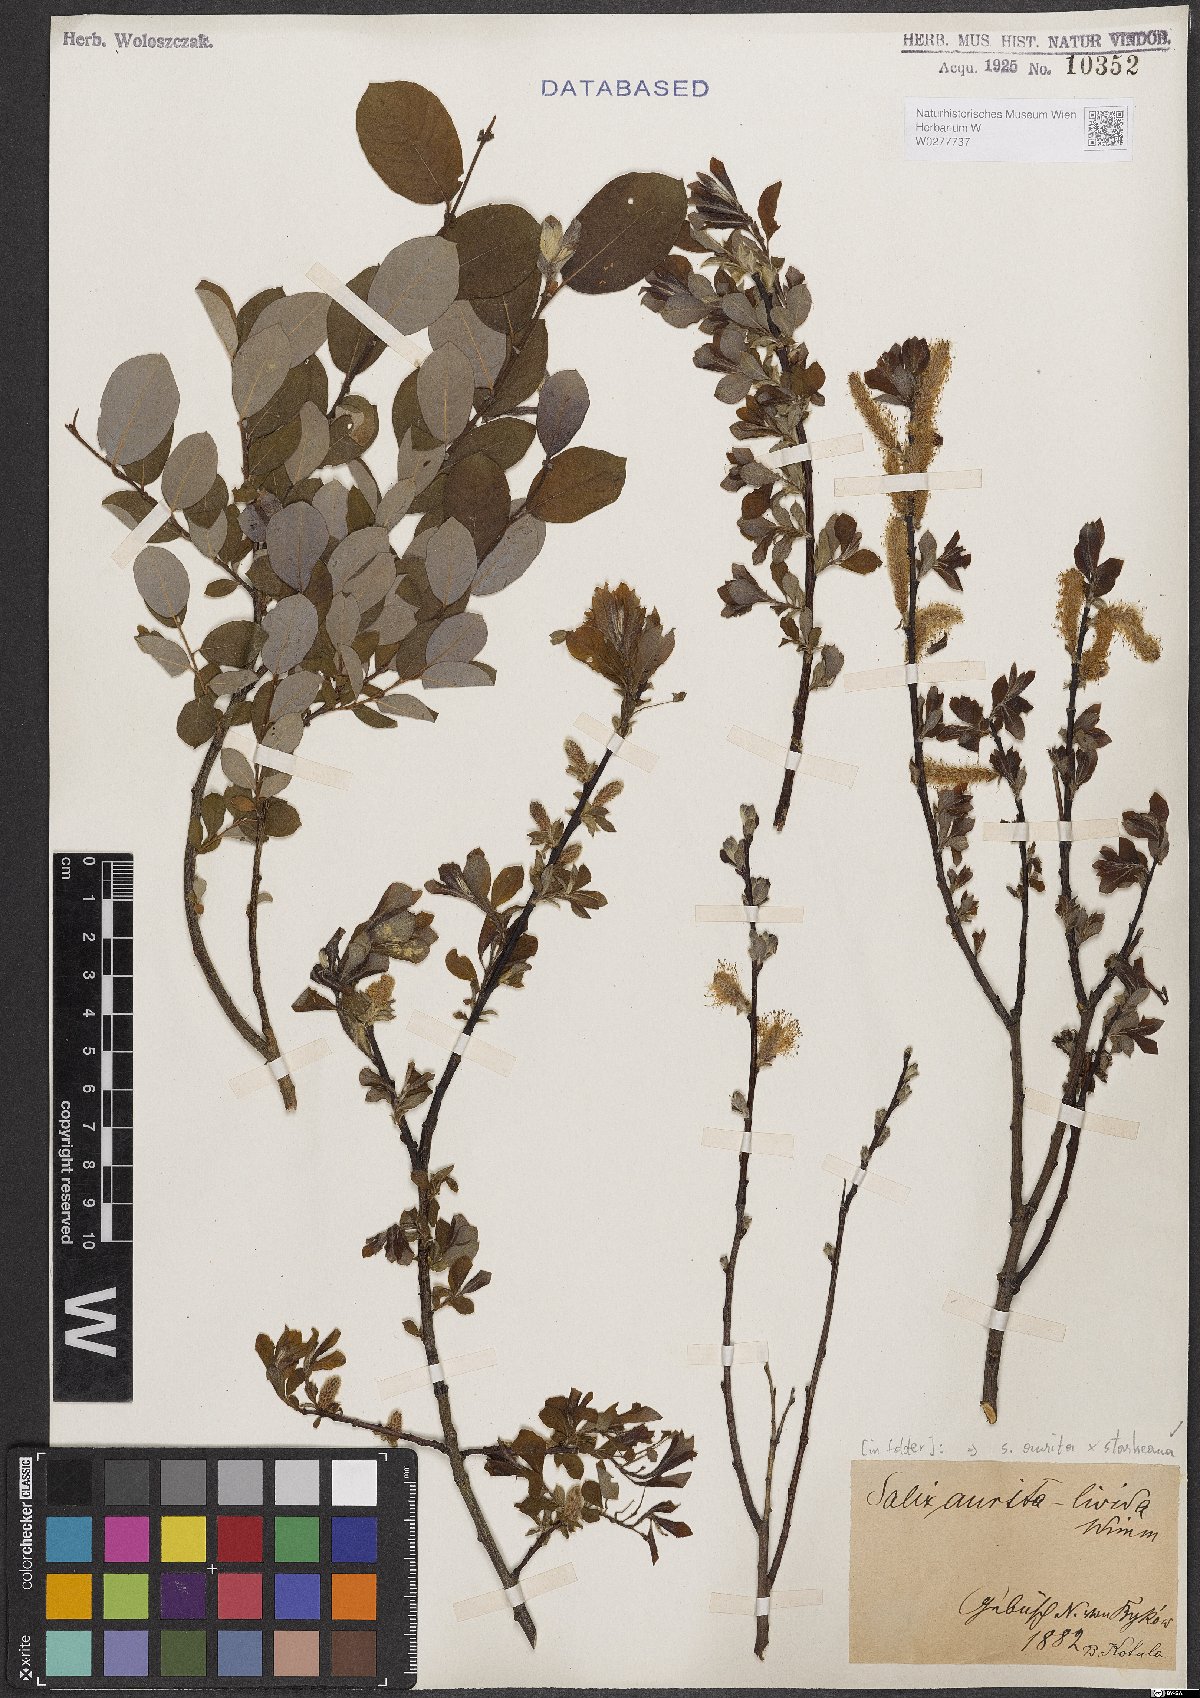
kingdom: Plantae
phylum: Tracheophyta
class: Magnoliopsida
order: Malpighiales
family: Salicaceae
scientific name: Salicaceae
